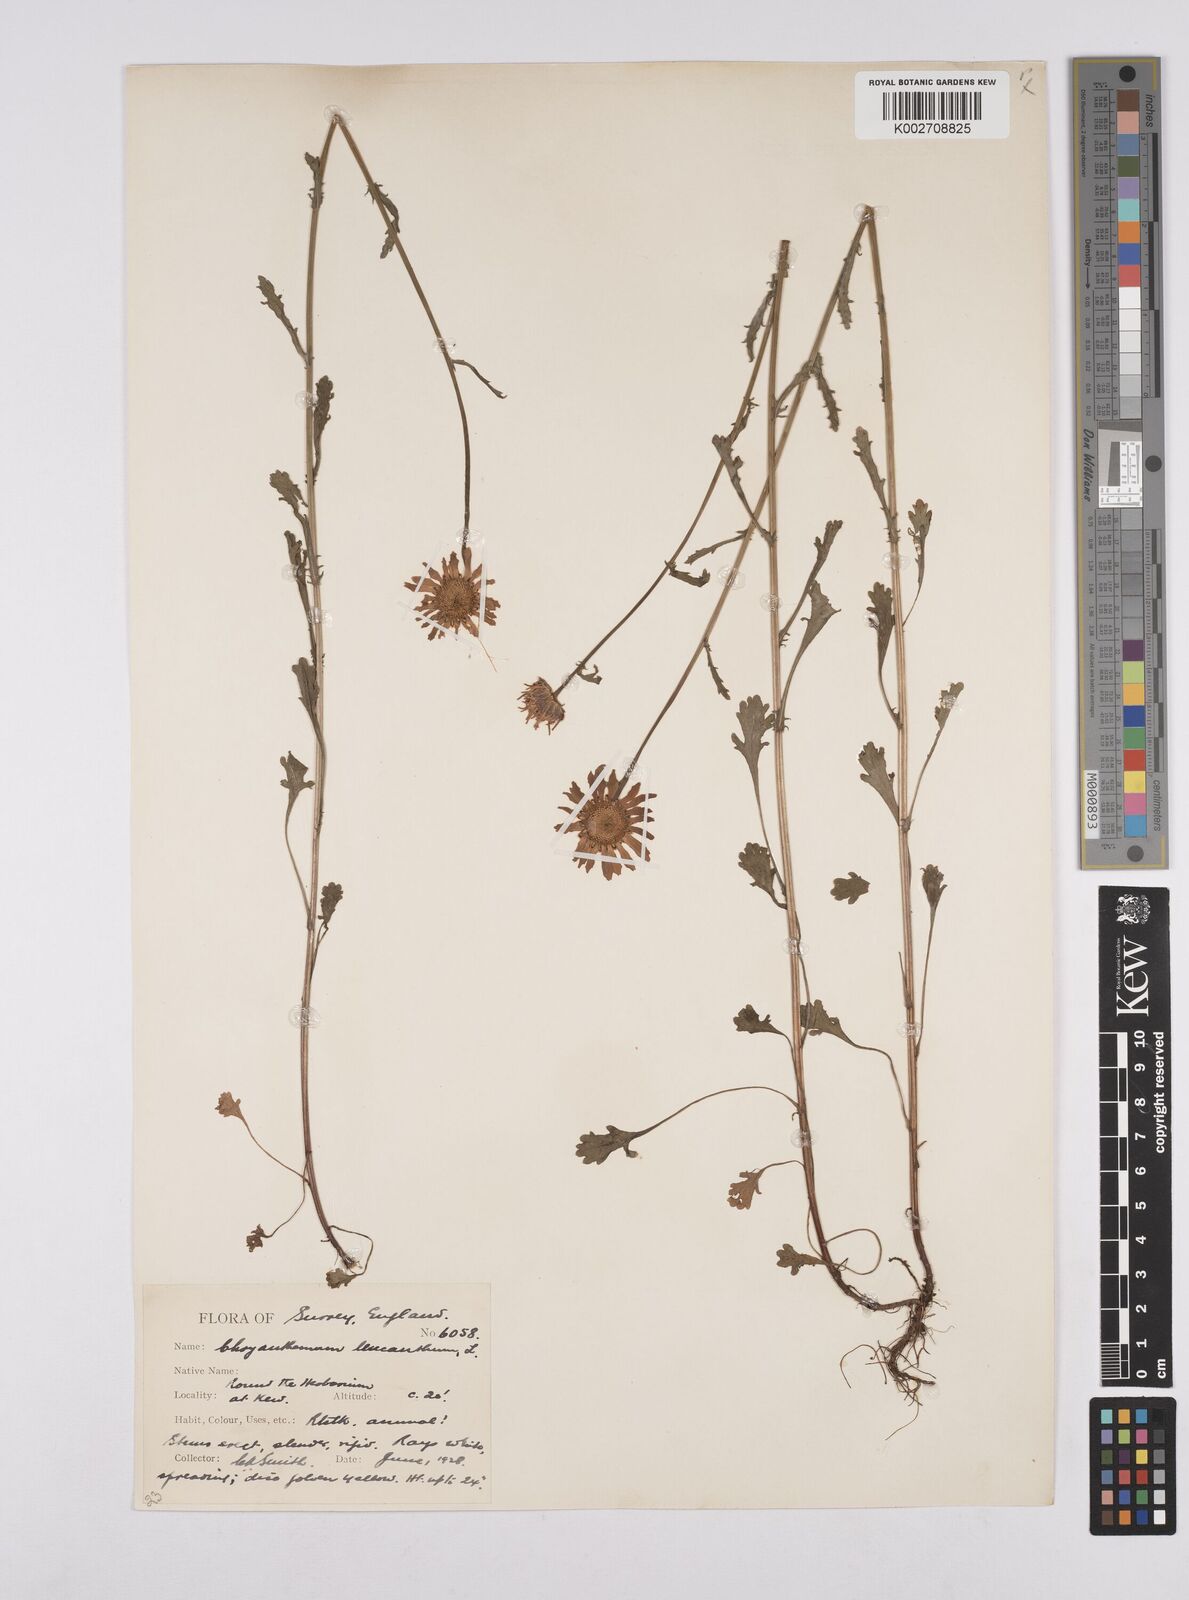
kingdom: Plantae
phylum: Tracheophyta
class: Magnoliopsida
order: Asterales
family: Asteraceae
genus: Leucanthemum
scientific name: Leucanthemum
